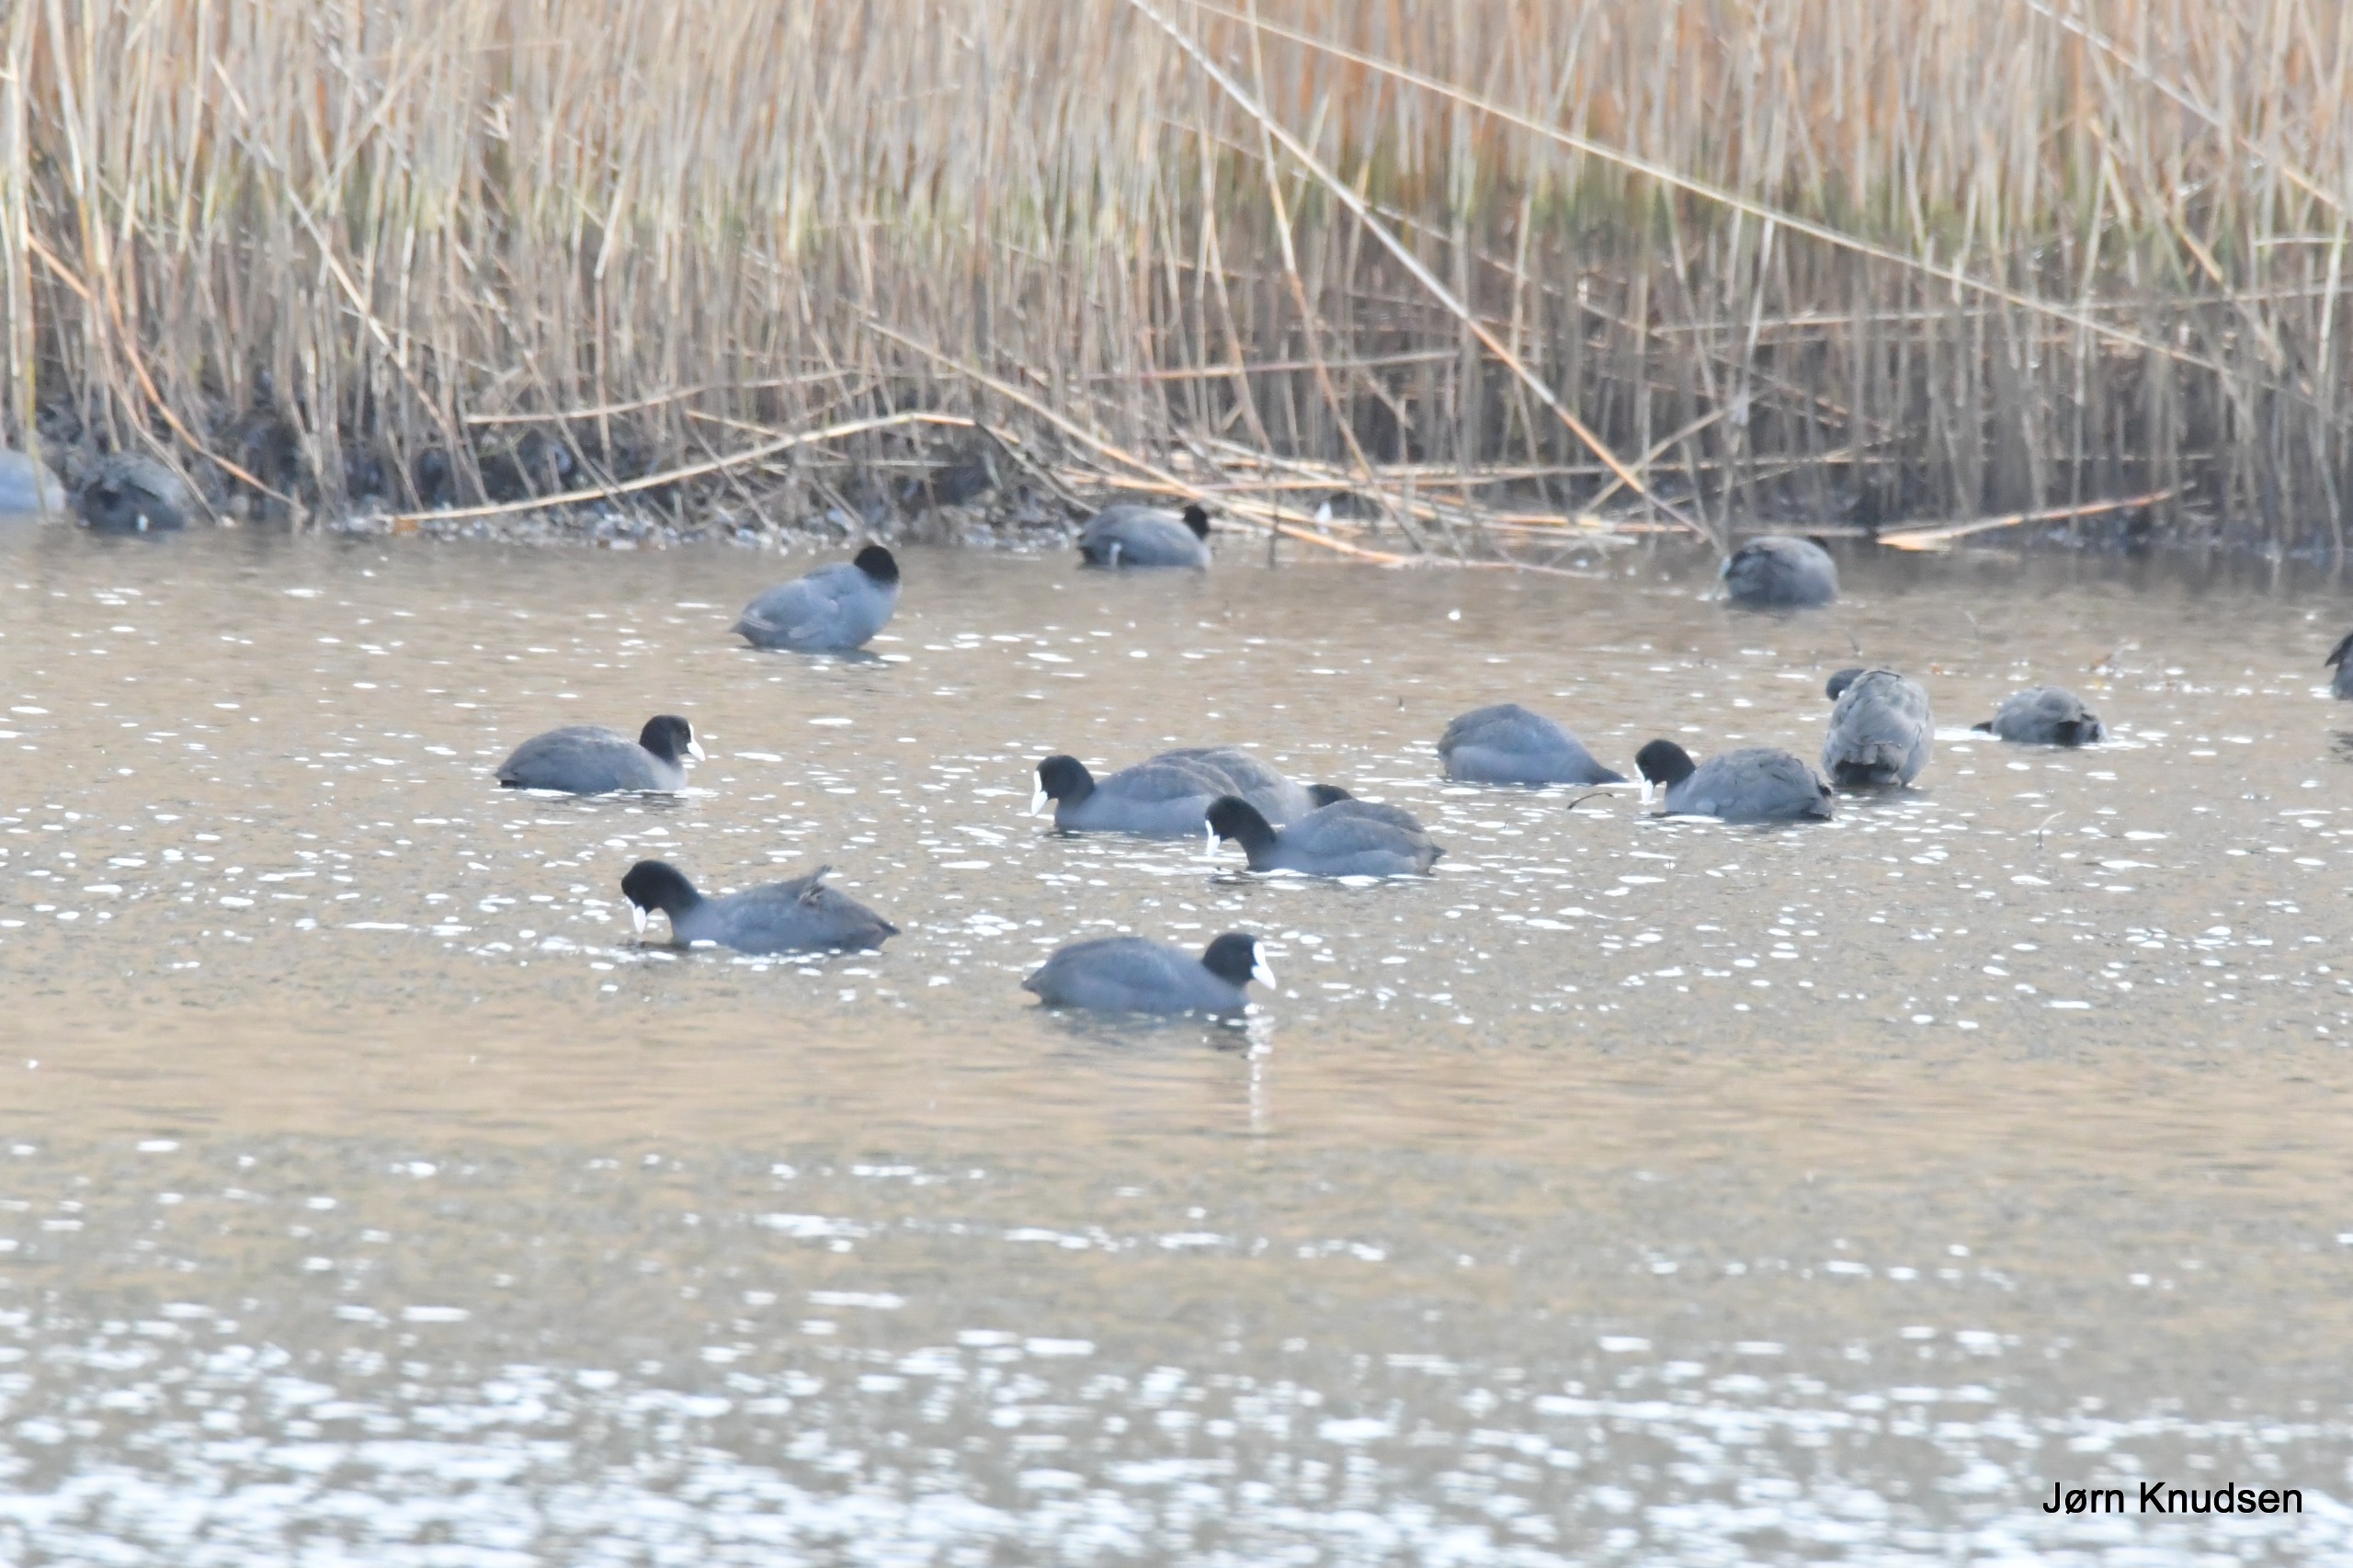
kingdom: Animalia
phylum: Chordata
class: Aves
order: Gruiformes
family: Rallidae
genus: Fulica
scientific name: Fulica atra
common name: Blishøne
